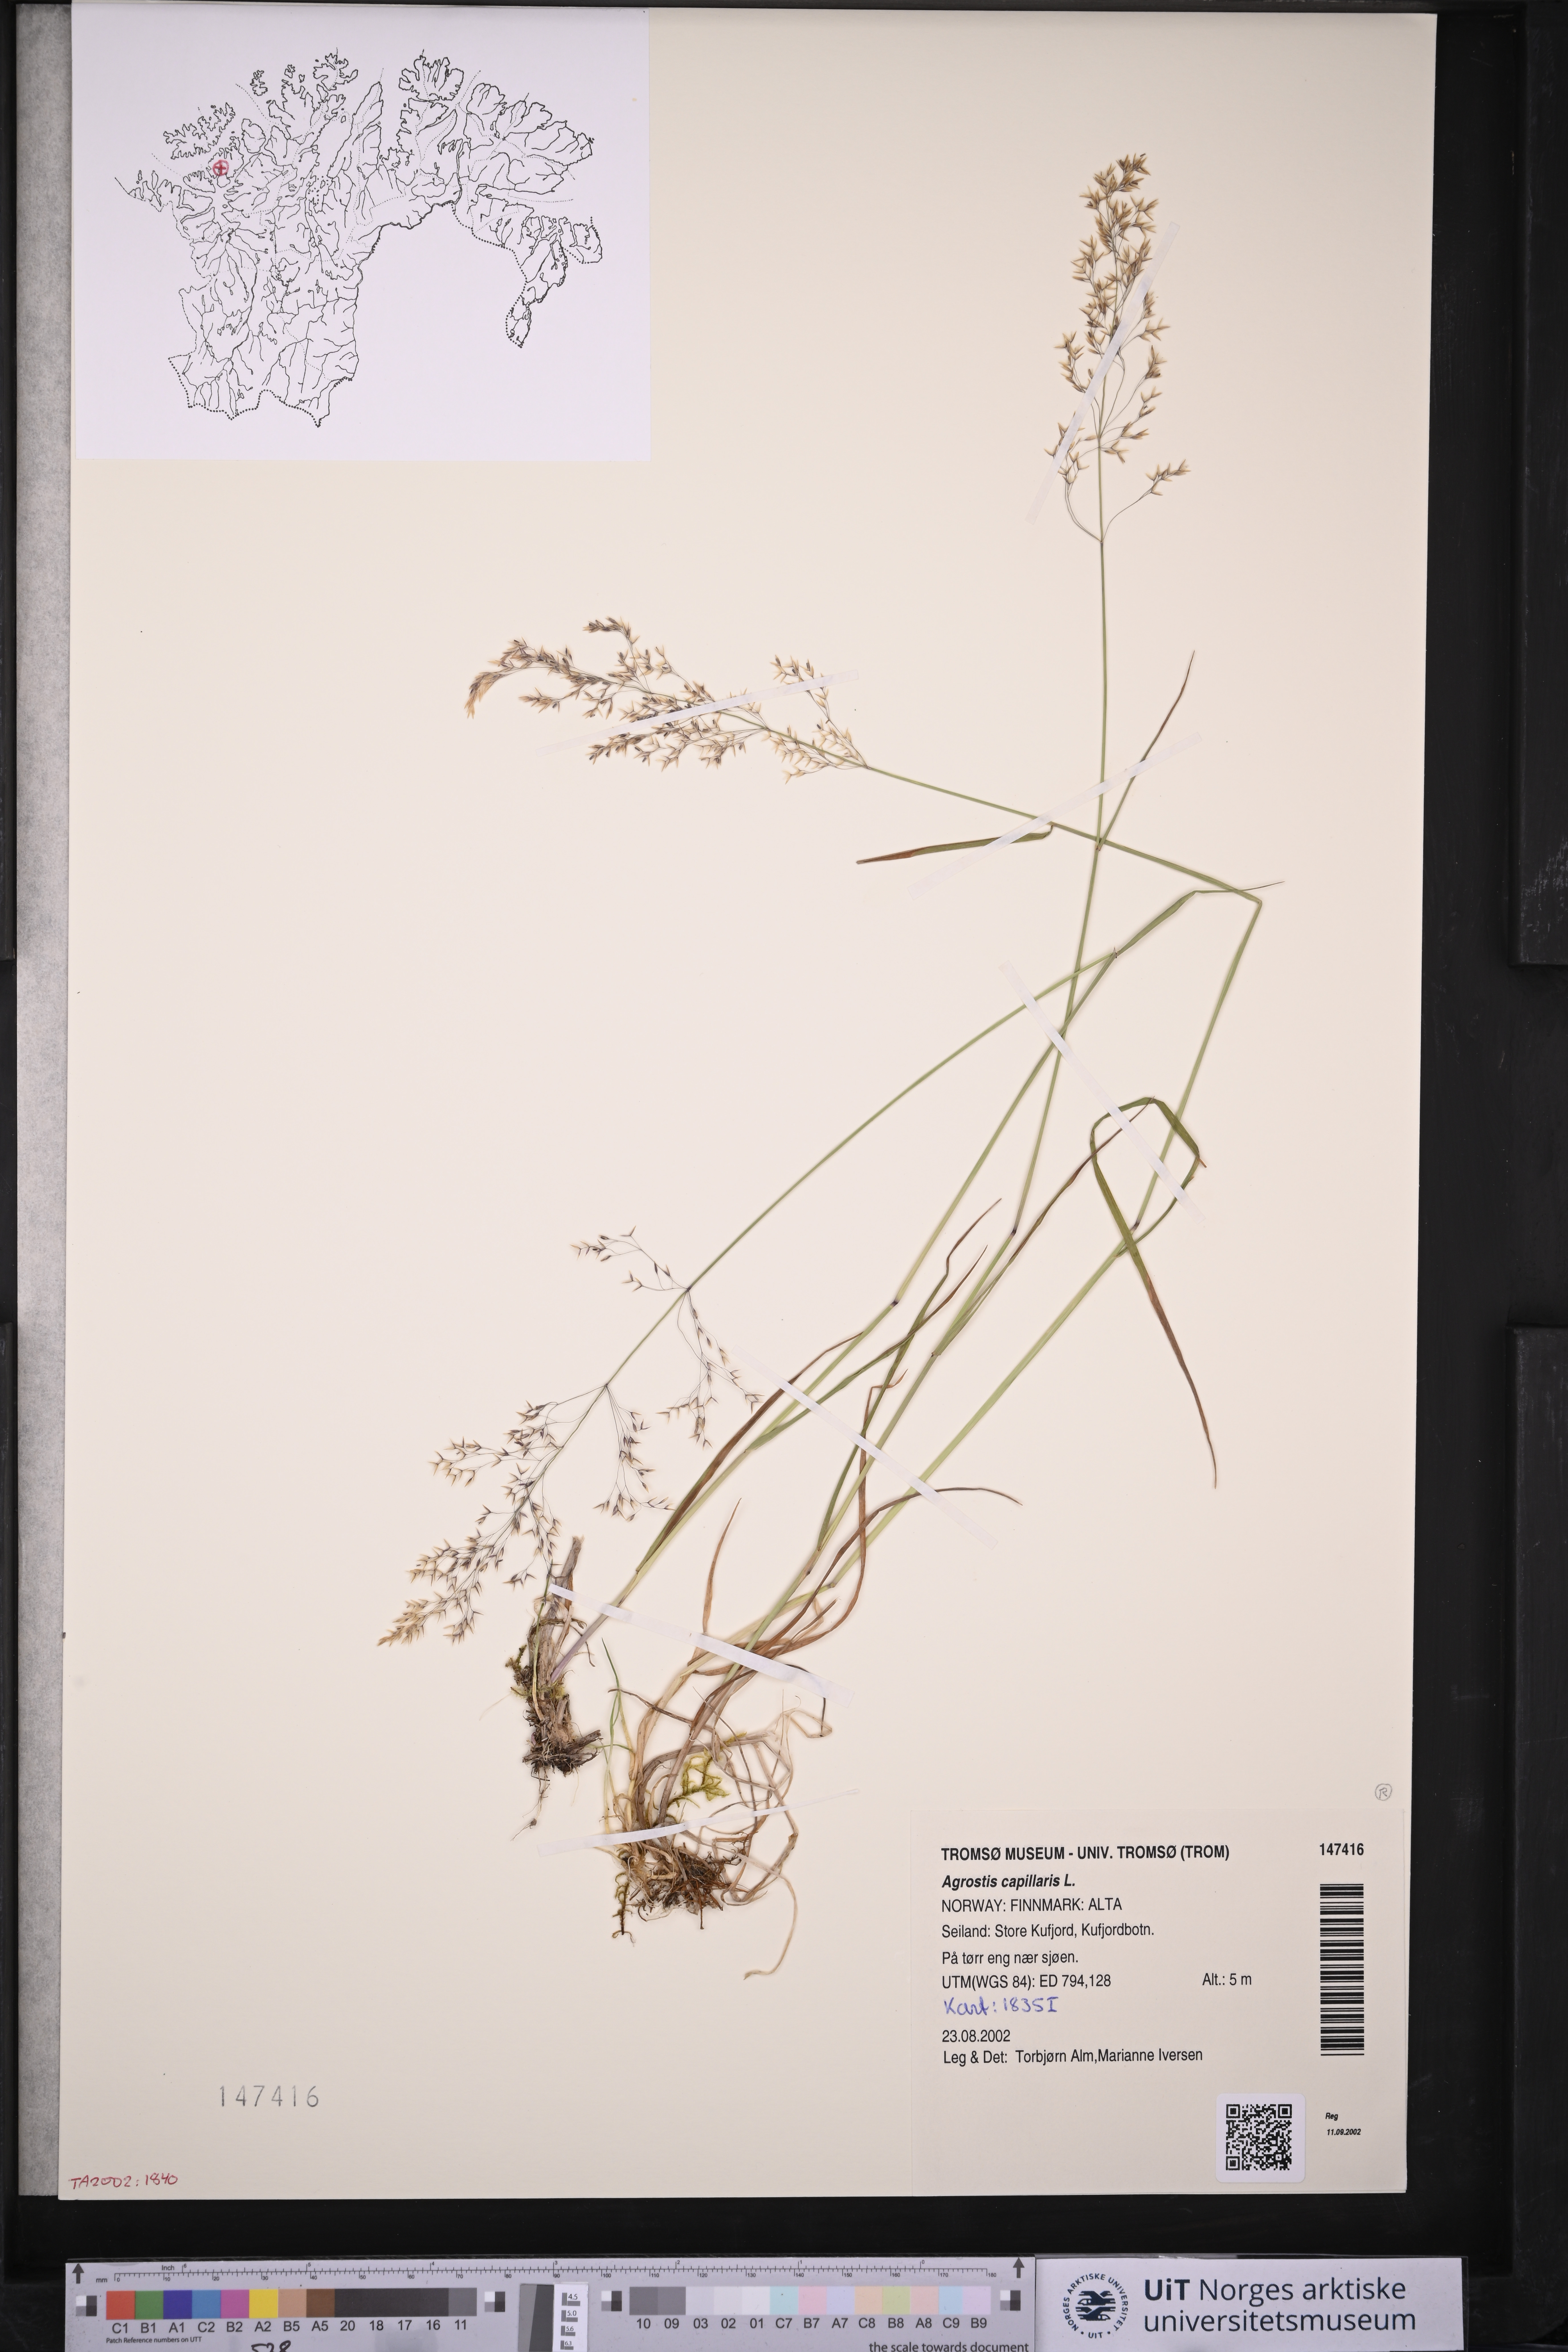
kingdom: Plantae
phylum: Tracheophyta
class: Liliopsida
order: Poales
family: Poaceae
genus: Agrostis
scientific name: Agrostis capillaris
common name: Colonial bentgrass
